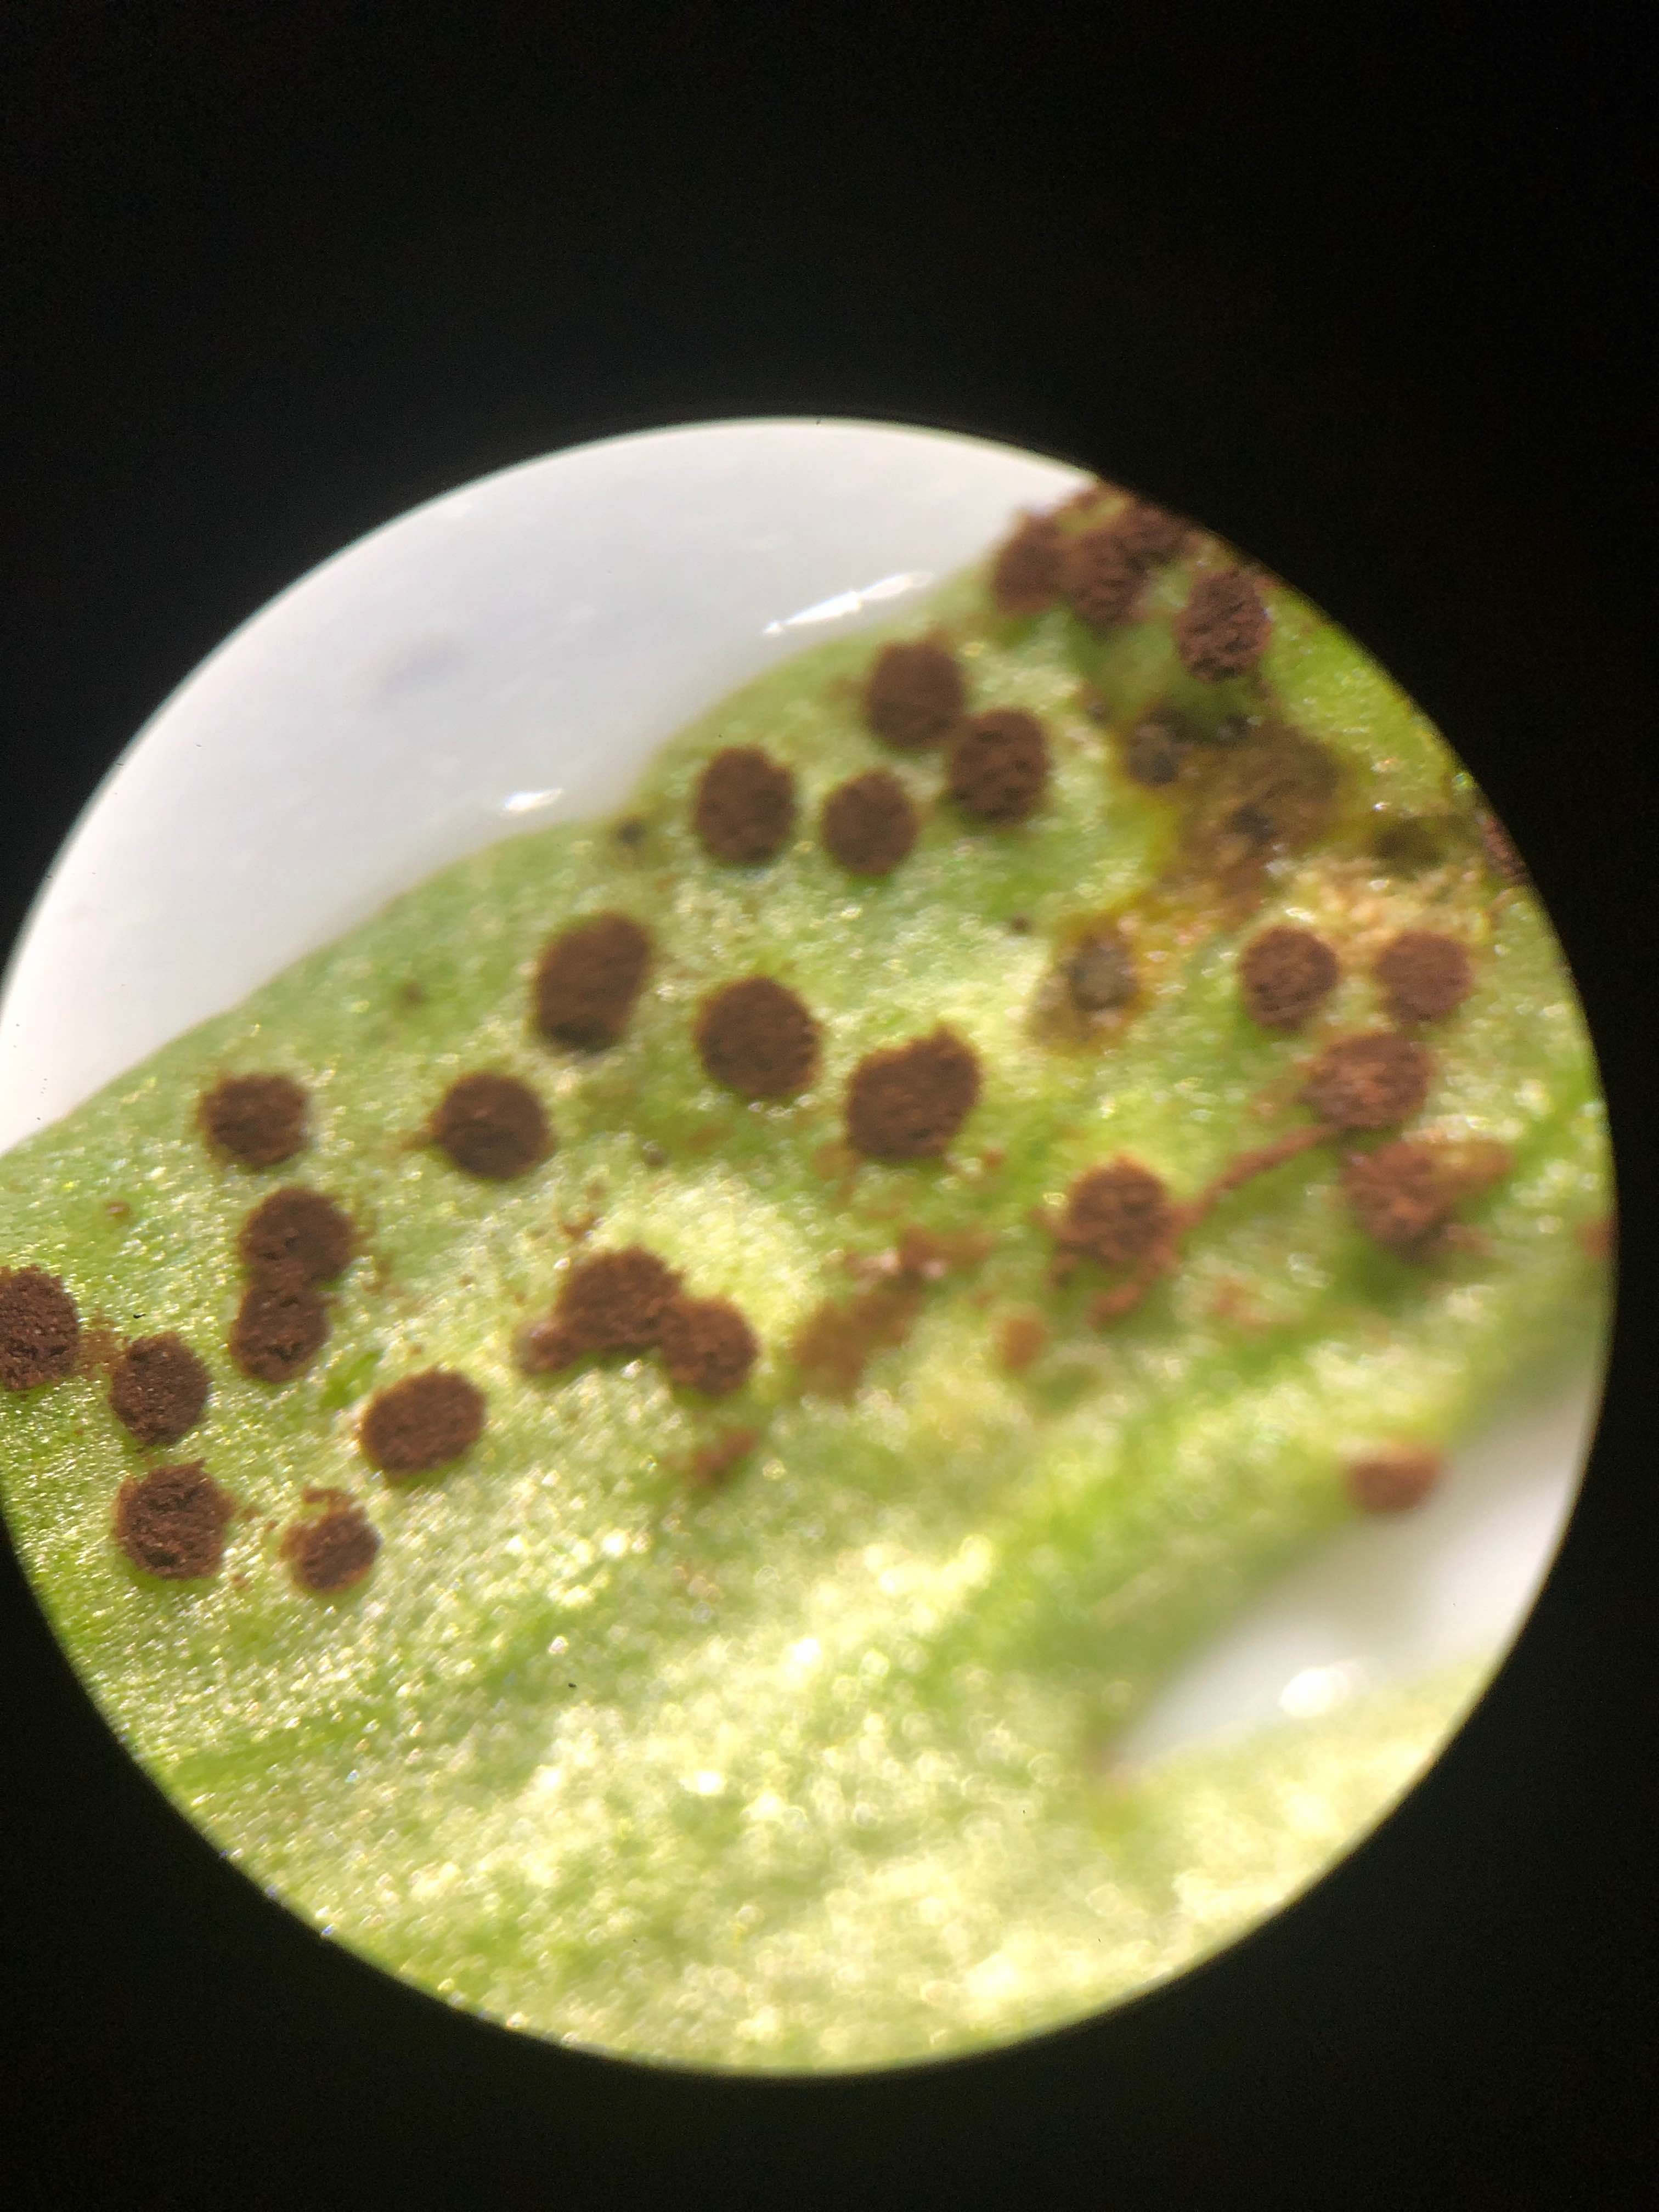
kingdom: Fungi
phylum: Basidiomycota
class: Pucciniomycetes
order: Pucciniales
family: Tranzscheliaceae
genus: Tranzschelia
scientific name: Tranzschelia anemones
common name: anemone-knæksporerust
